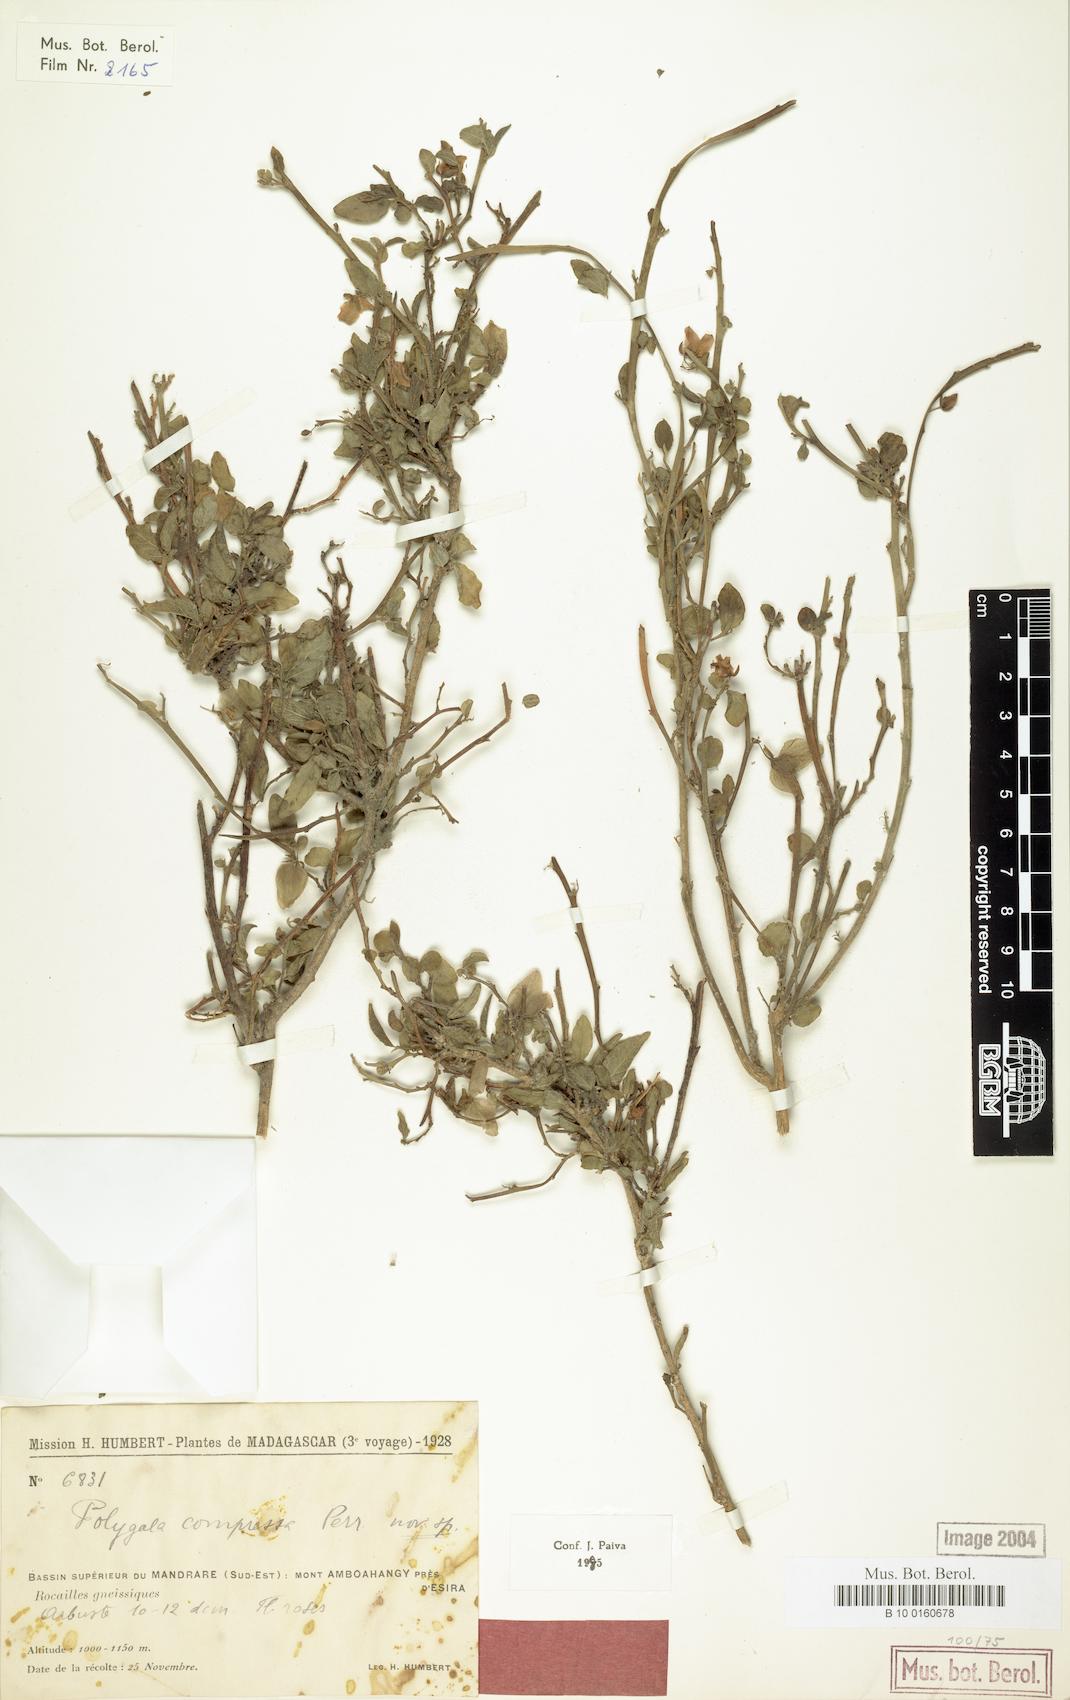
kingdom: Plantae
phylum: Tracheophyta
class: Magnoliopsida
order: Fabales
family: Polygalaceae
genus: Polygala
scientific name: Polygala compressa
